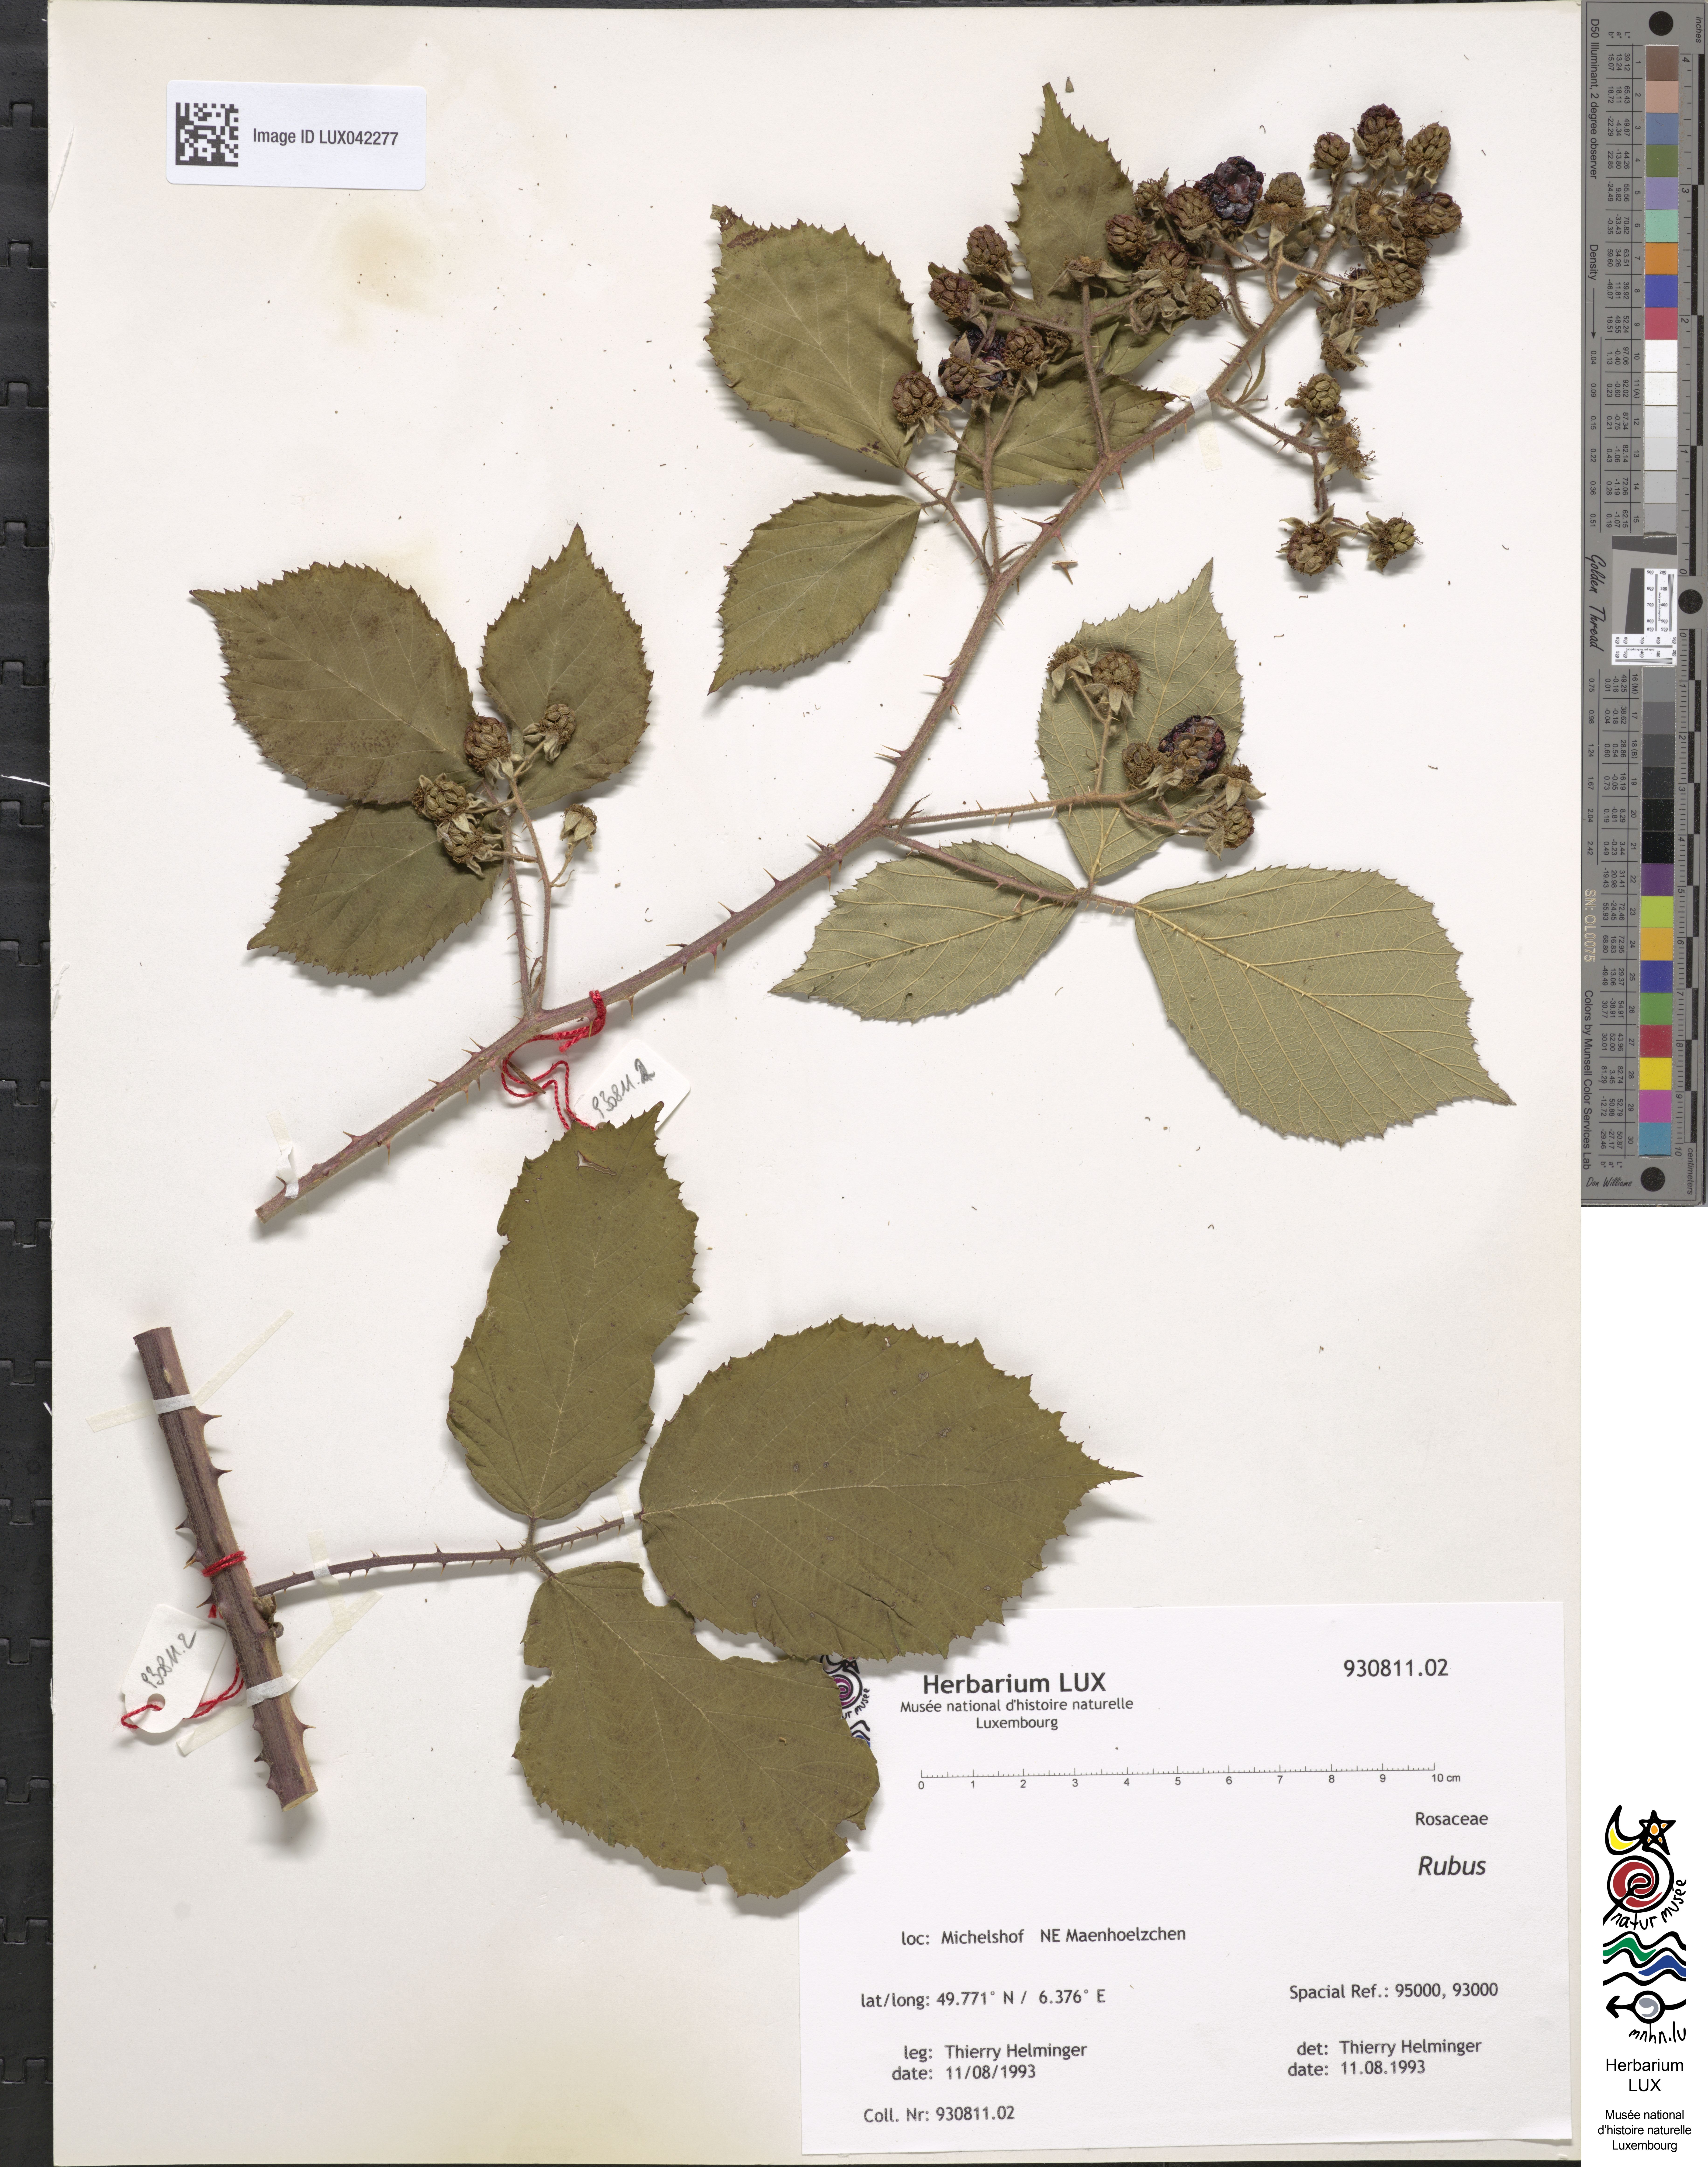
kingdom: Plantae
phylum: Tracheophyta
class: Magnoliopsida
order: Rosales
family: Rosaceae
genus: Rubus
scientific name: Rubus
